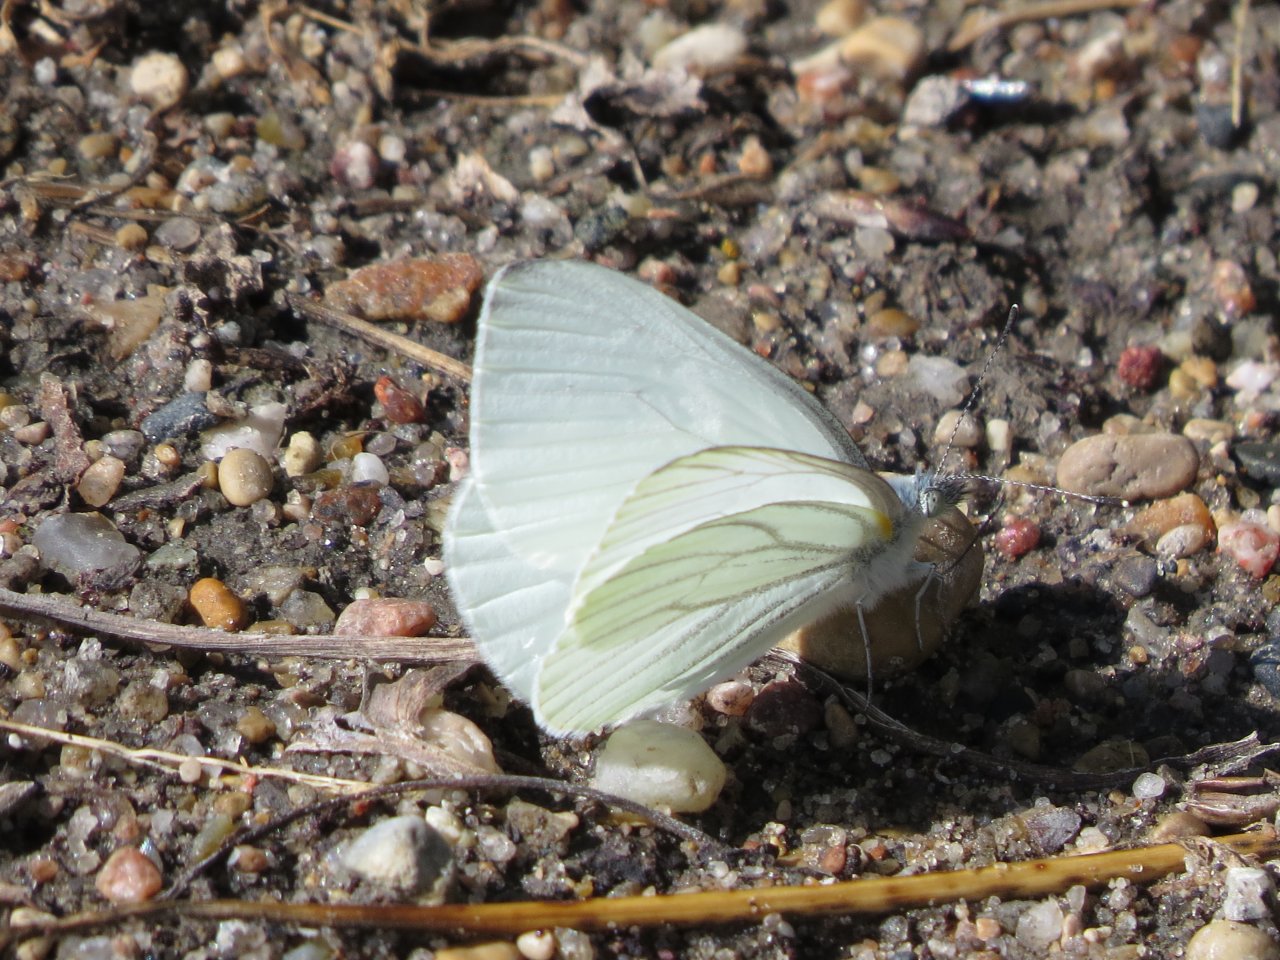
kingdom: Animalia
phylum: Arthropoda
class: Insecta
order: Lepidoptera
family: Pieridae
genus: Pieris
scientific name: Pieris oleracea
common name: Mustard White
